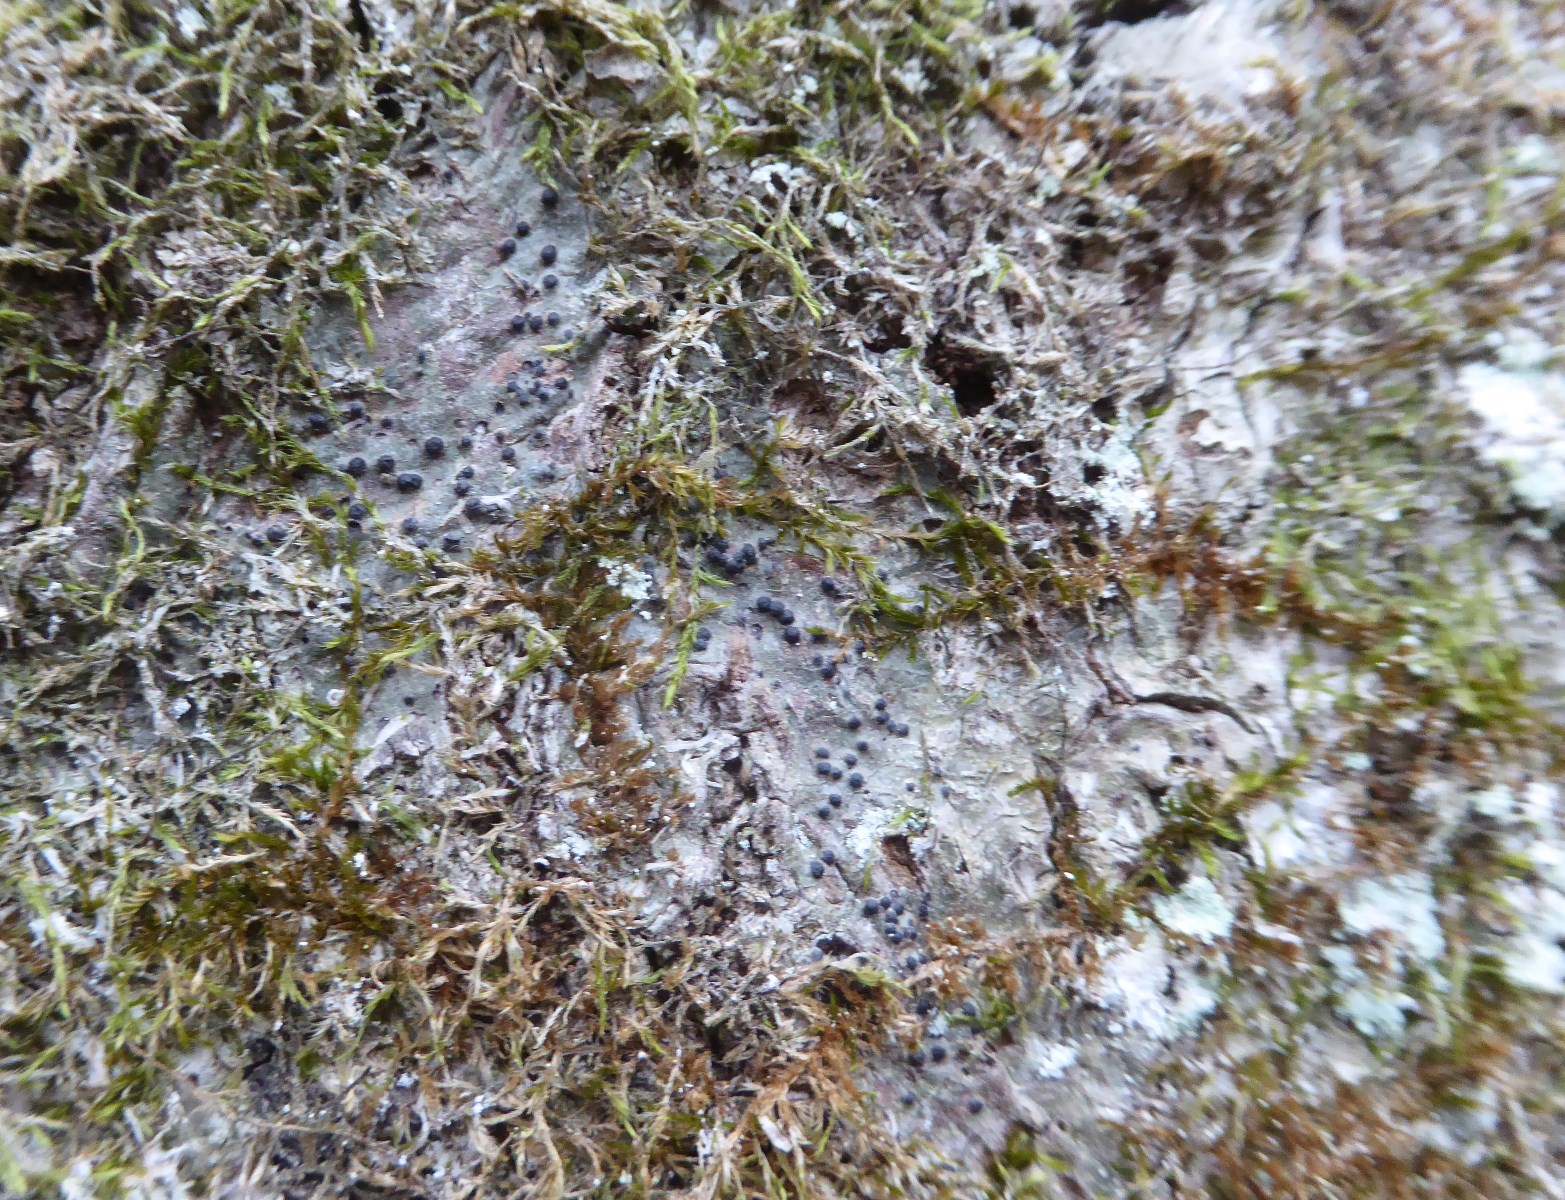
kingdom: Fungi
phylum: Ascomycota
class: Eurotiomycetes
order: Pyrenulales
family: Pyrenulaceae
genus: Pyrenula
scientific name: Pyrenula nitida
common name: glinsende kernelav
